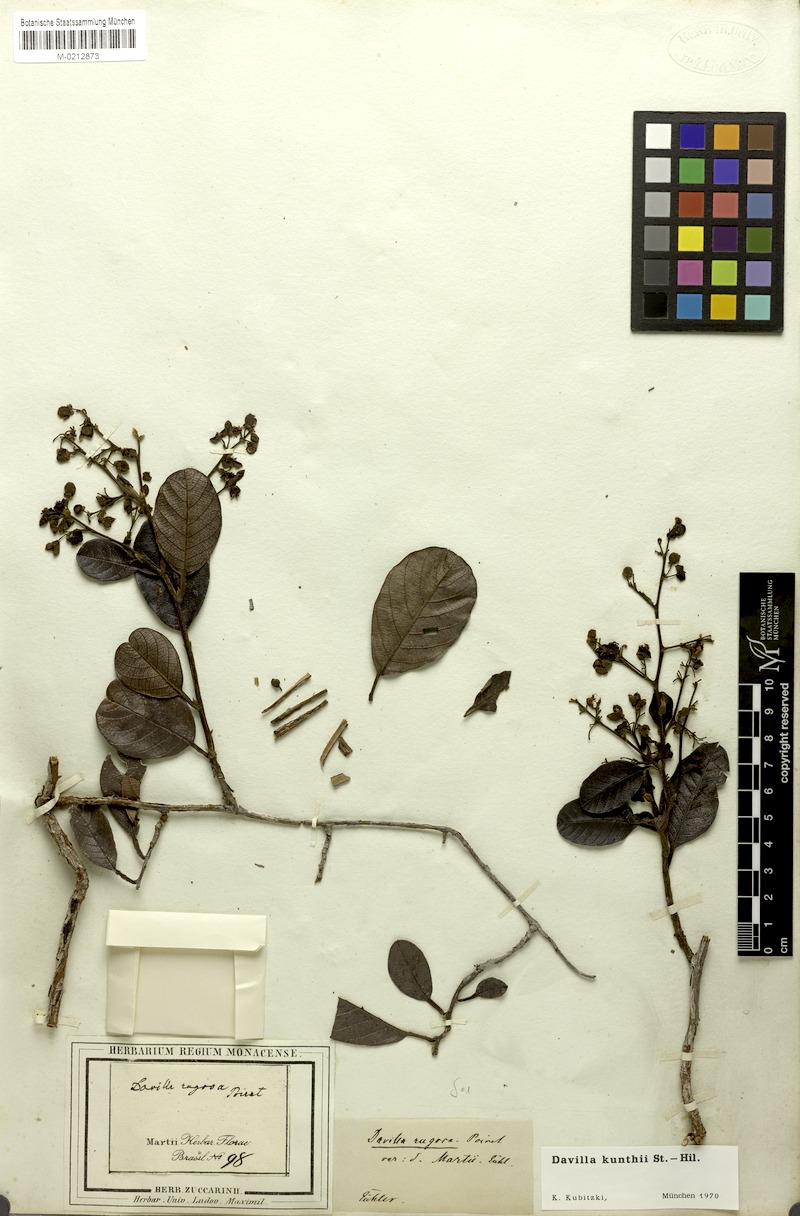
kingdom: Plantae
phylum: Tracheophyta
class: Magnoliopsida
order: Dilleniales
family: Dilleniaceae
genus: Davilla
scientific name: Davilla kunthii
